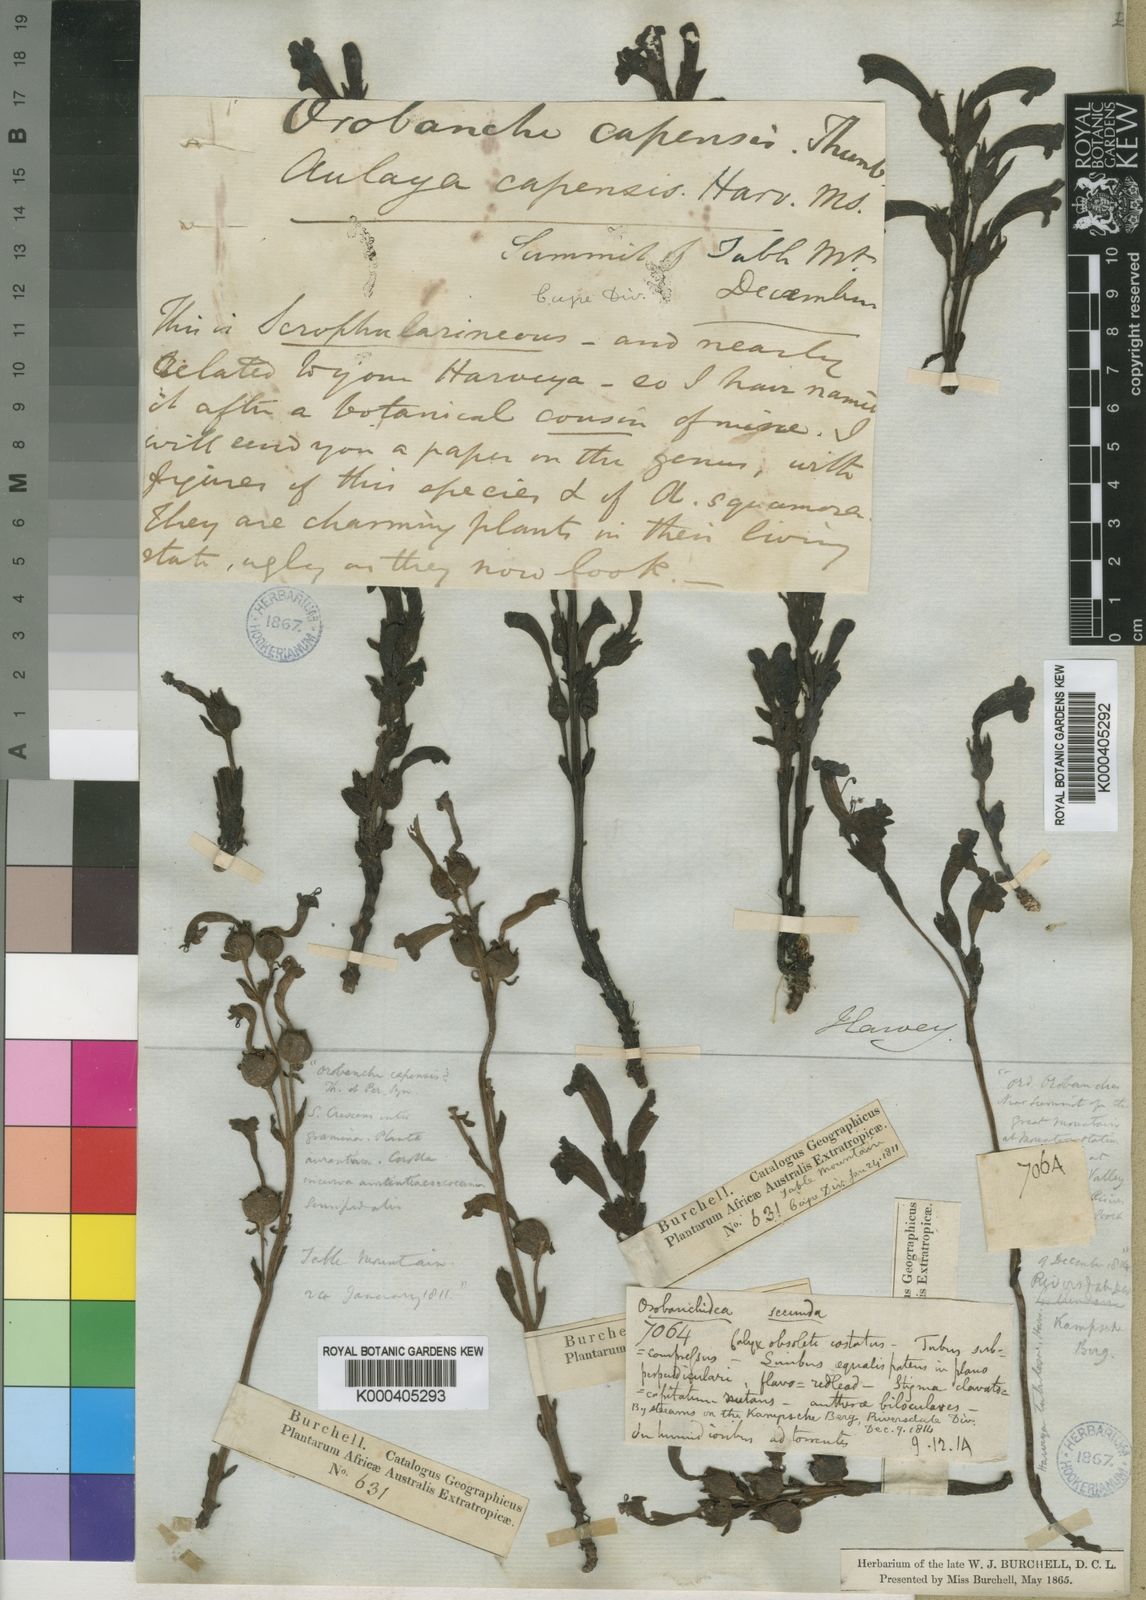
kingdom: Plantae
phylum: Tracheophyta
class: Magnoliopsida
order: Lamiales
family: Orobanchaceae
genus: Harveya
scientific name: Harveya bolusii
